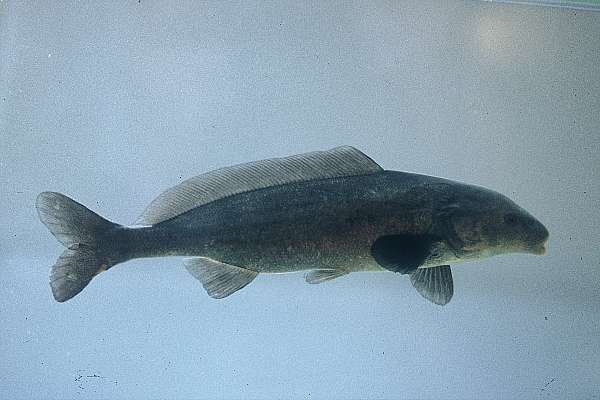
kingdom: Animalia
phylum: Chordata
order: Osteoglossiformes
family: Mormyridae
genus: Mormyrus
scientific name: Mormyrus lacerda
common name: Western bottlenose
